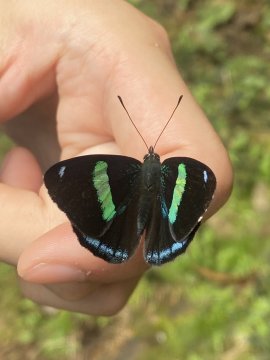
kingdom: Animalia
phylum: Arthropoda
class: Insecta
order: Lepidoptera
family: Nymphalidae
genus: Perisama
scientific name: Perisama oppelii
